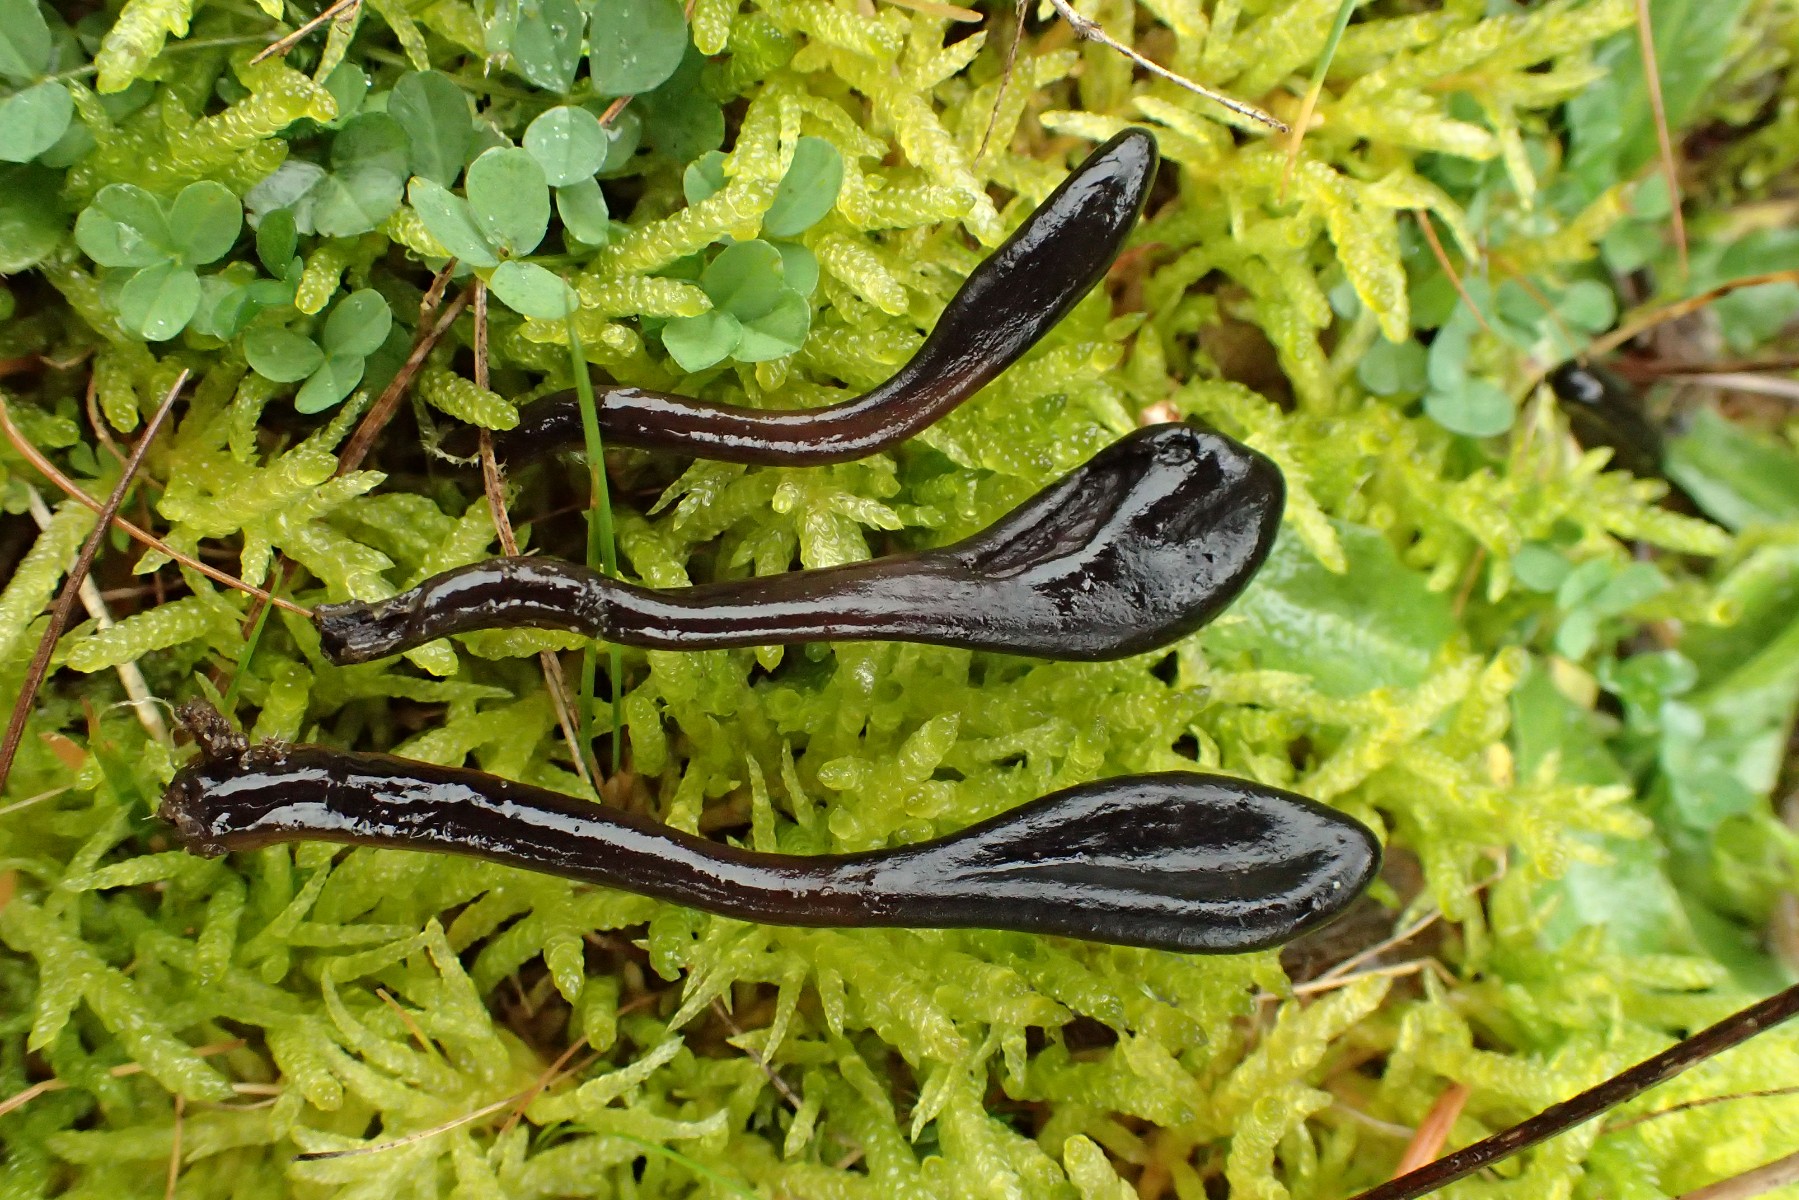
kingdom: Fungi
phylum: Ascomycota
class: Geoglossomycetes
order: Geoglossales
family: Geoglossaceae
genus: Glutinoglossum
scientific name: Glutinoglossum
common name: jordtunge
